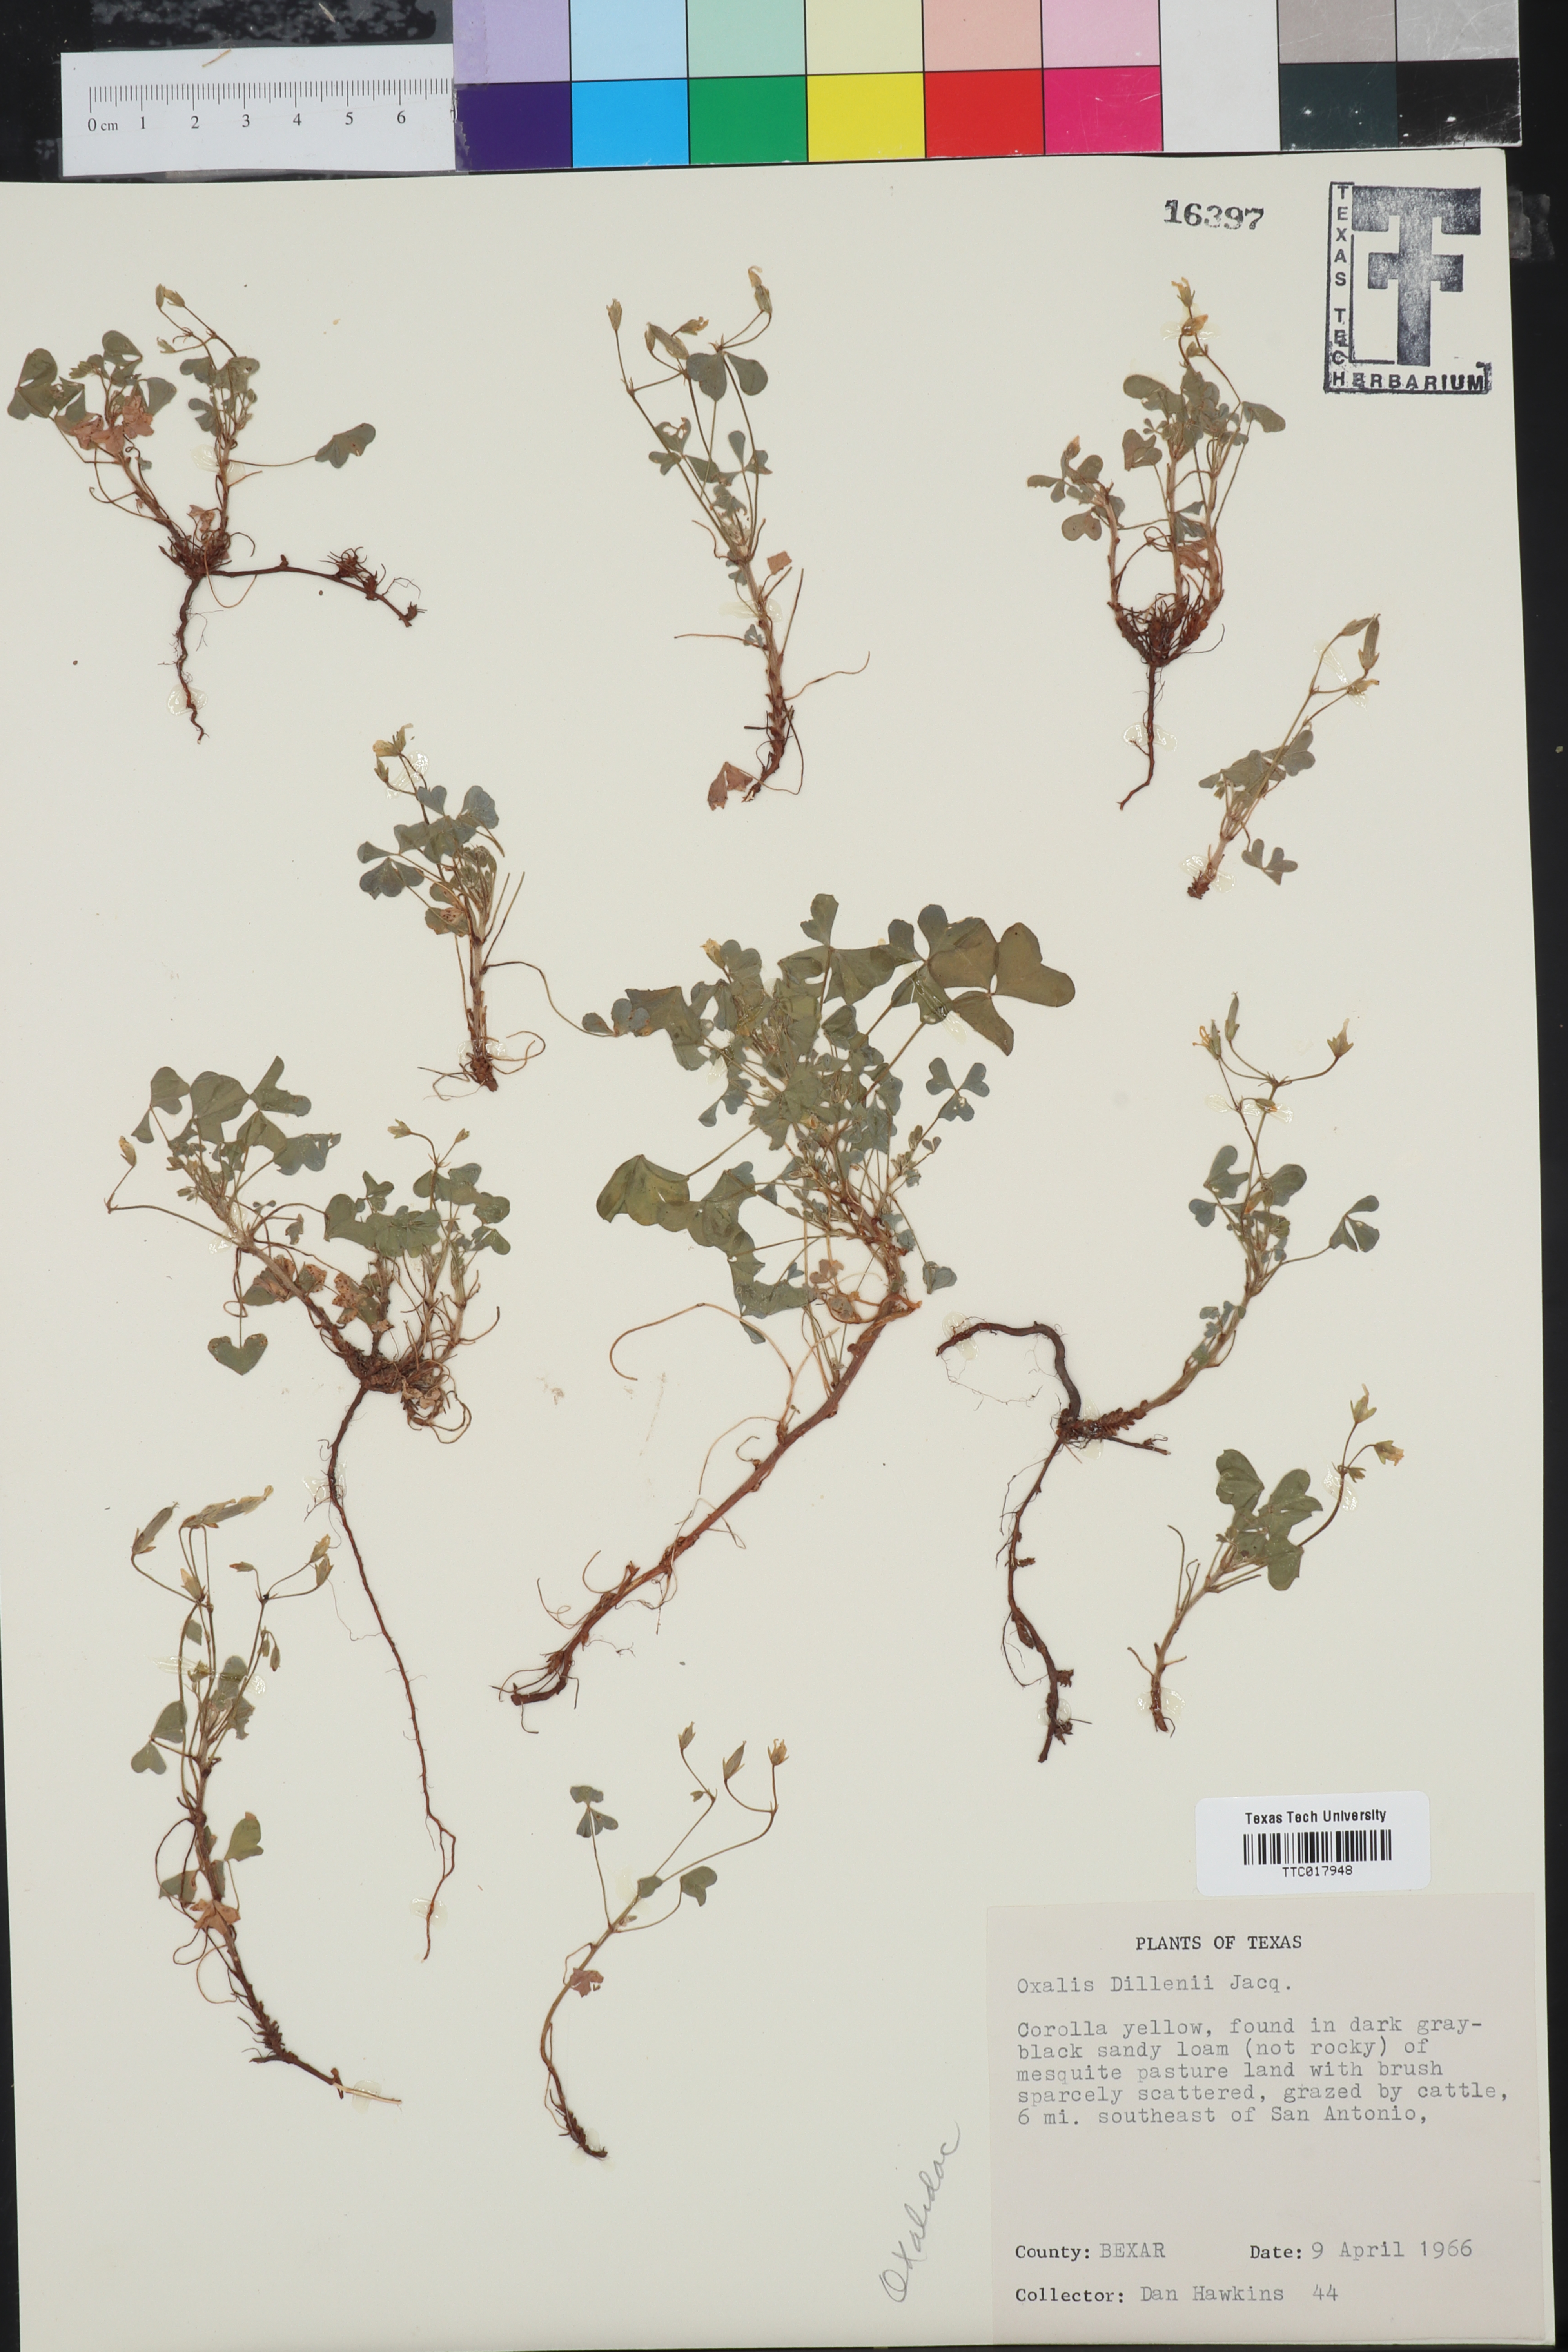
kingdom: Plantae
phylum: Tracheophyta
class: Magnoliopsida
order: Oxalidales
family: Oxalidaceae
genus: Oxalis
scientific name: Oxalis dillenii
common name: Sussex yellow-sorrel
